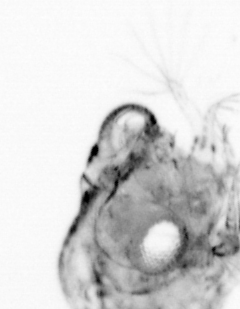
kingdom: Animalia
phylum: Arthropoda
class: Copepoda
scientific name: Copepoda
